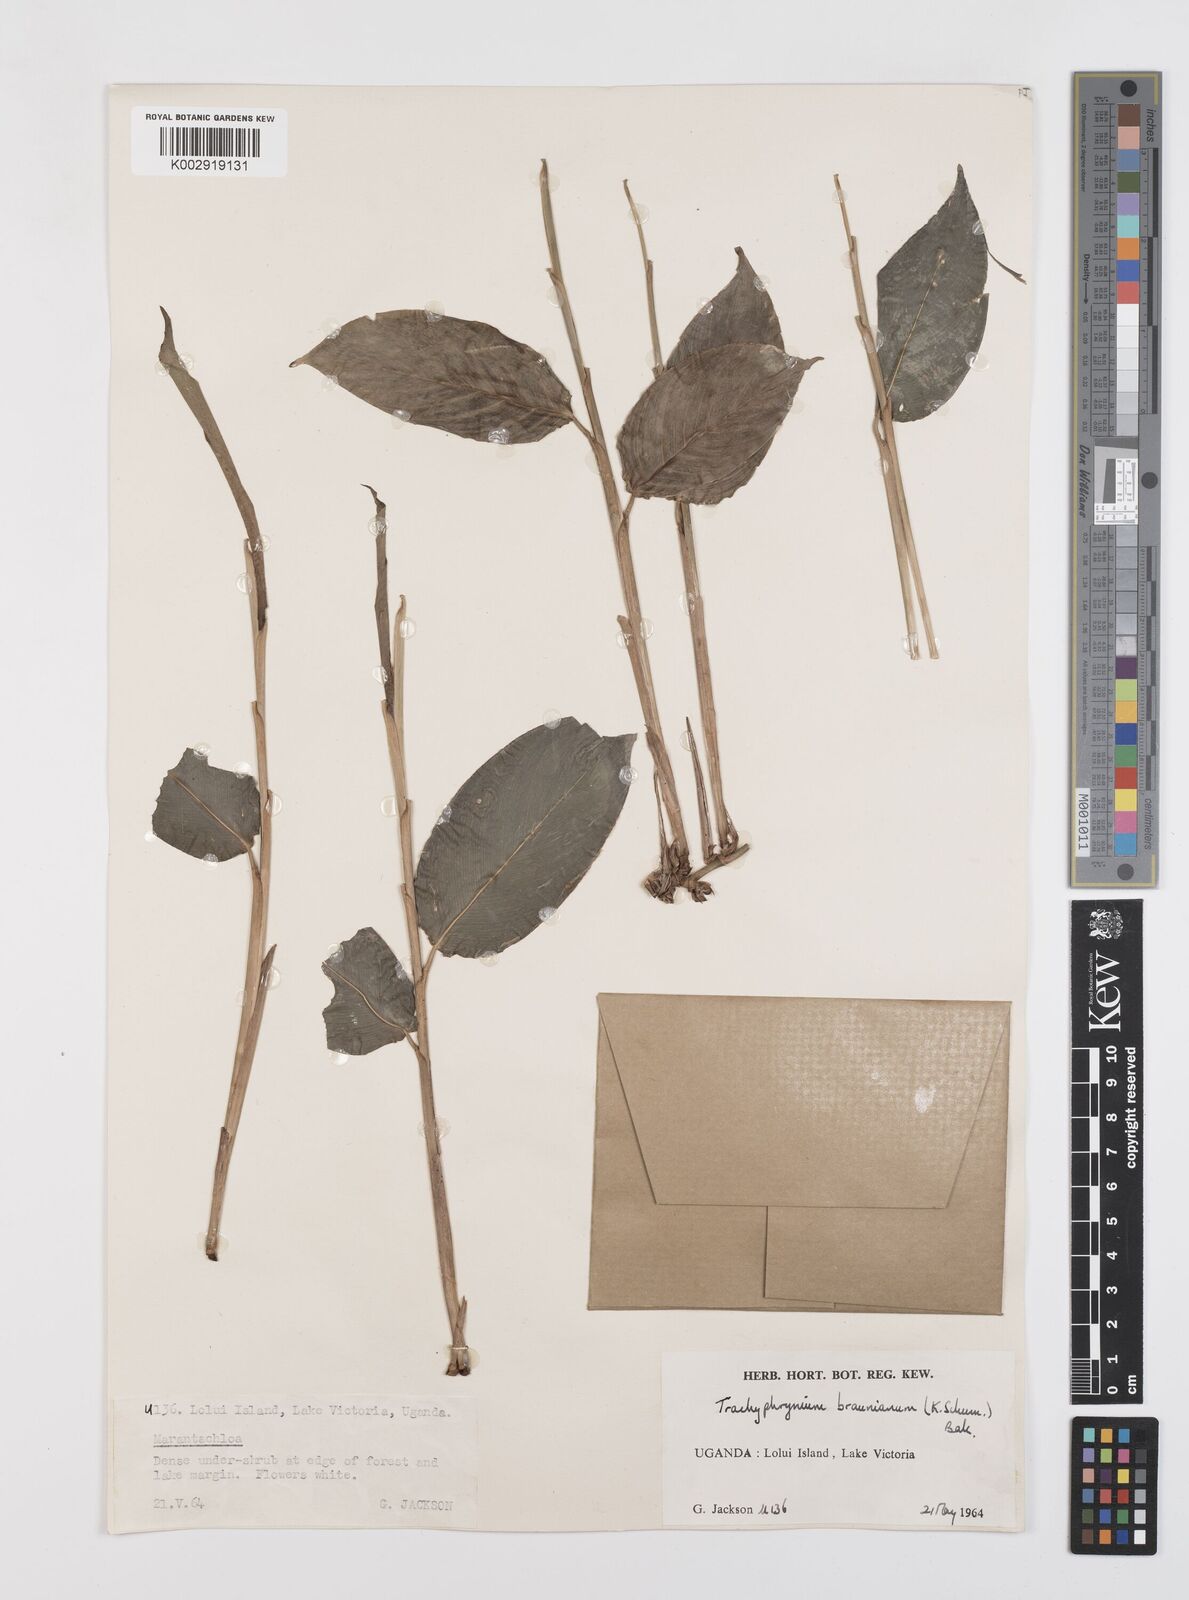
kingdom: Plantae
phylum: Tracheophyta
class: Liliopsida
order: Zingiberales
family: Marantaceae
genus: Trachyphrynium
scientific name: Trachyphrynium braunianum
